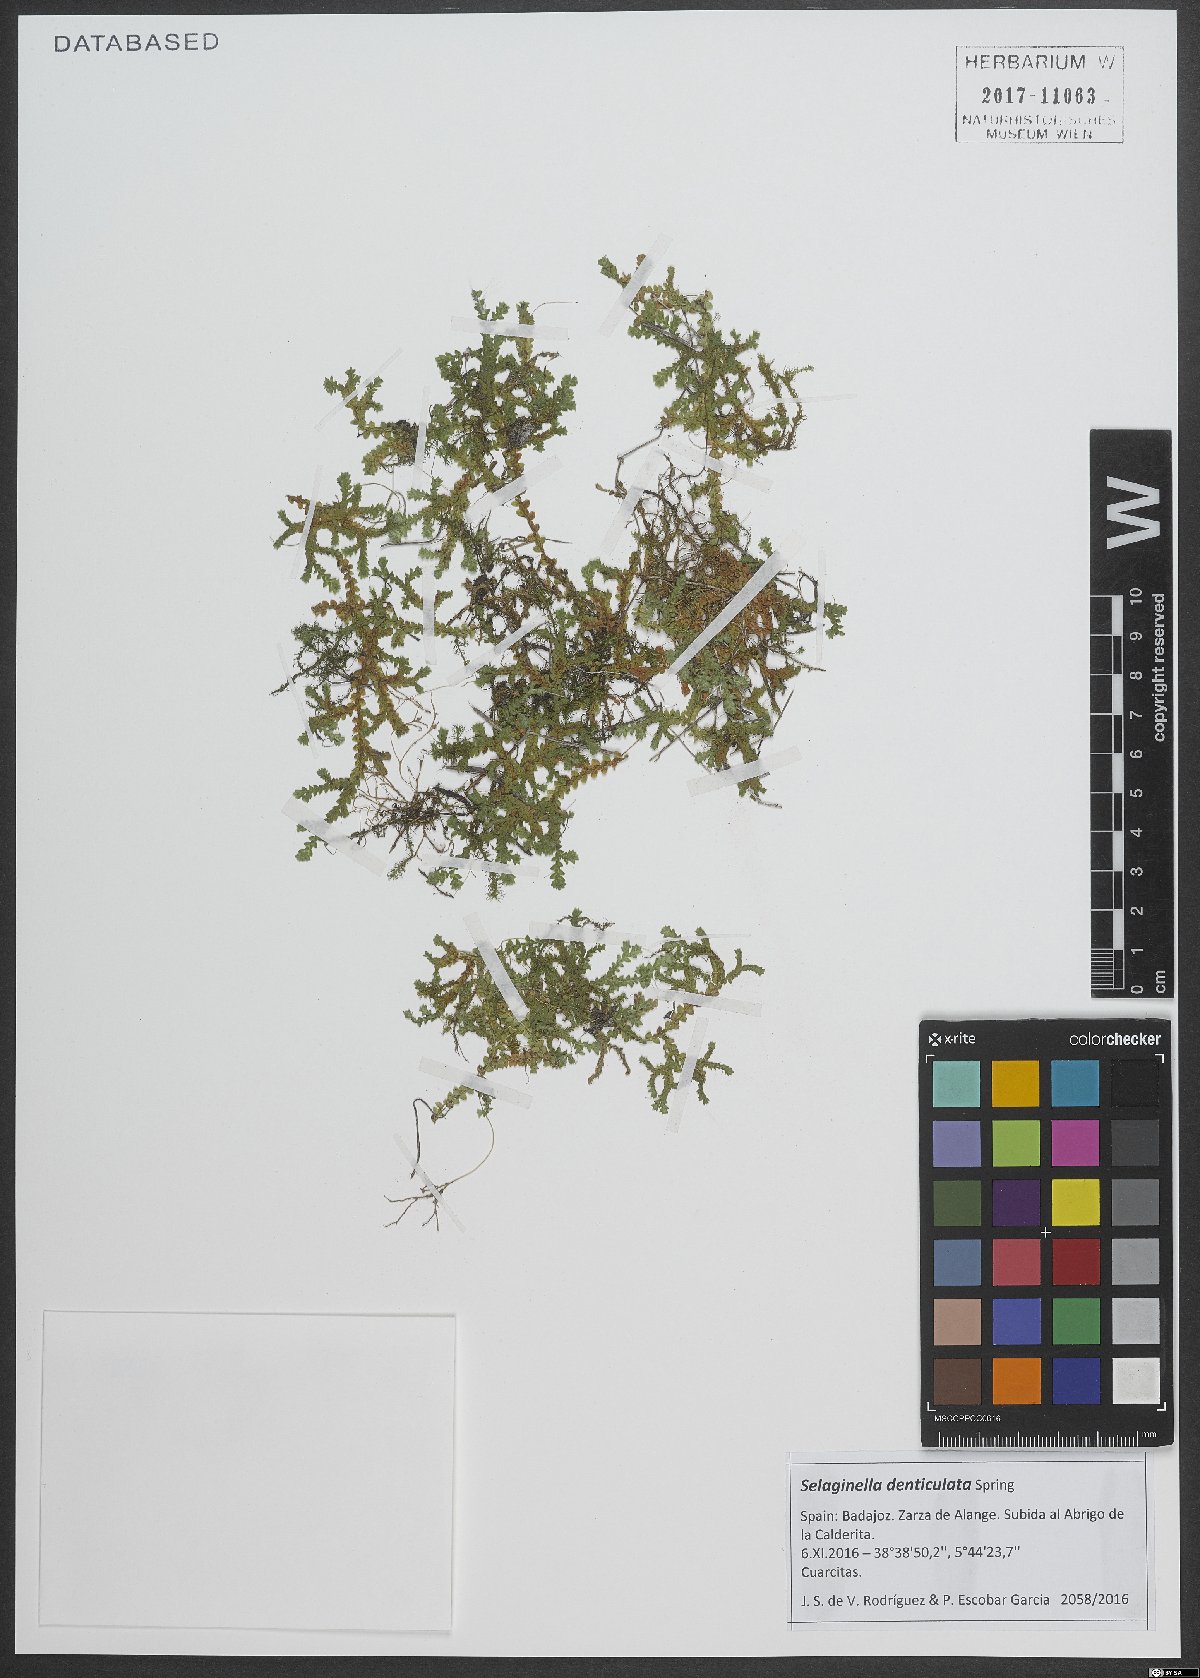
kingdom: Plantae
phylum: Tracheophyta
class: Lycopodiopsida
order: Selaginellales
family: Selaginellaceae
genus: Selaginella
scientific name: Selaginella denticulata
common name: Toothed-leaved clubmoss
